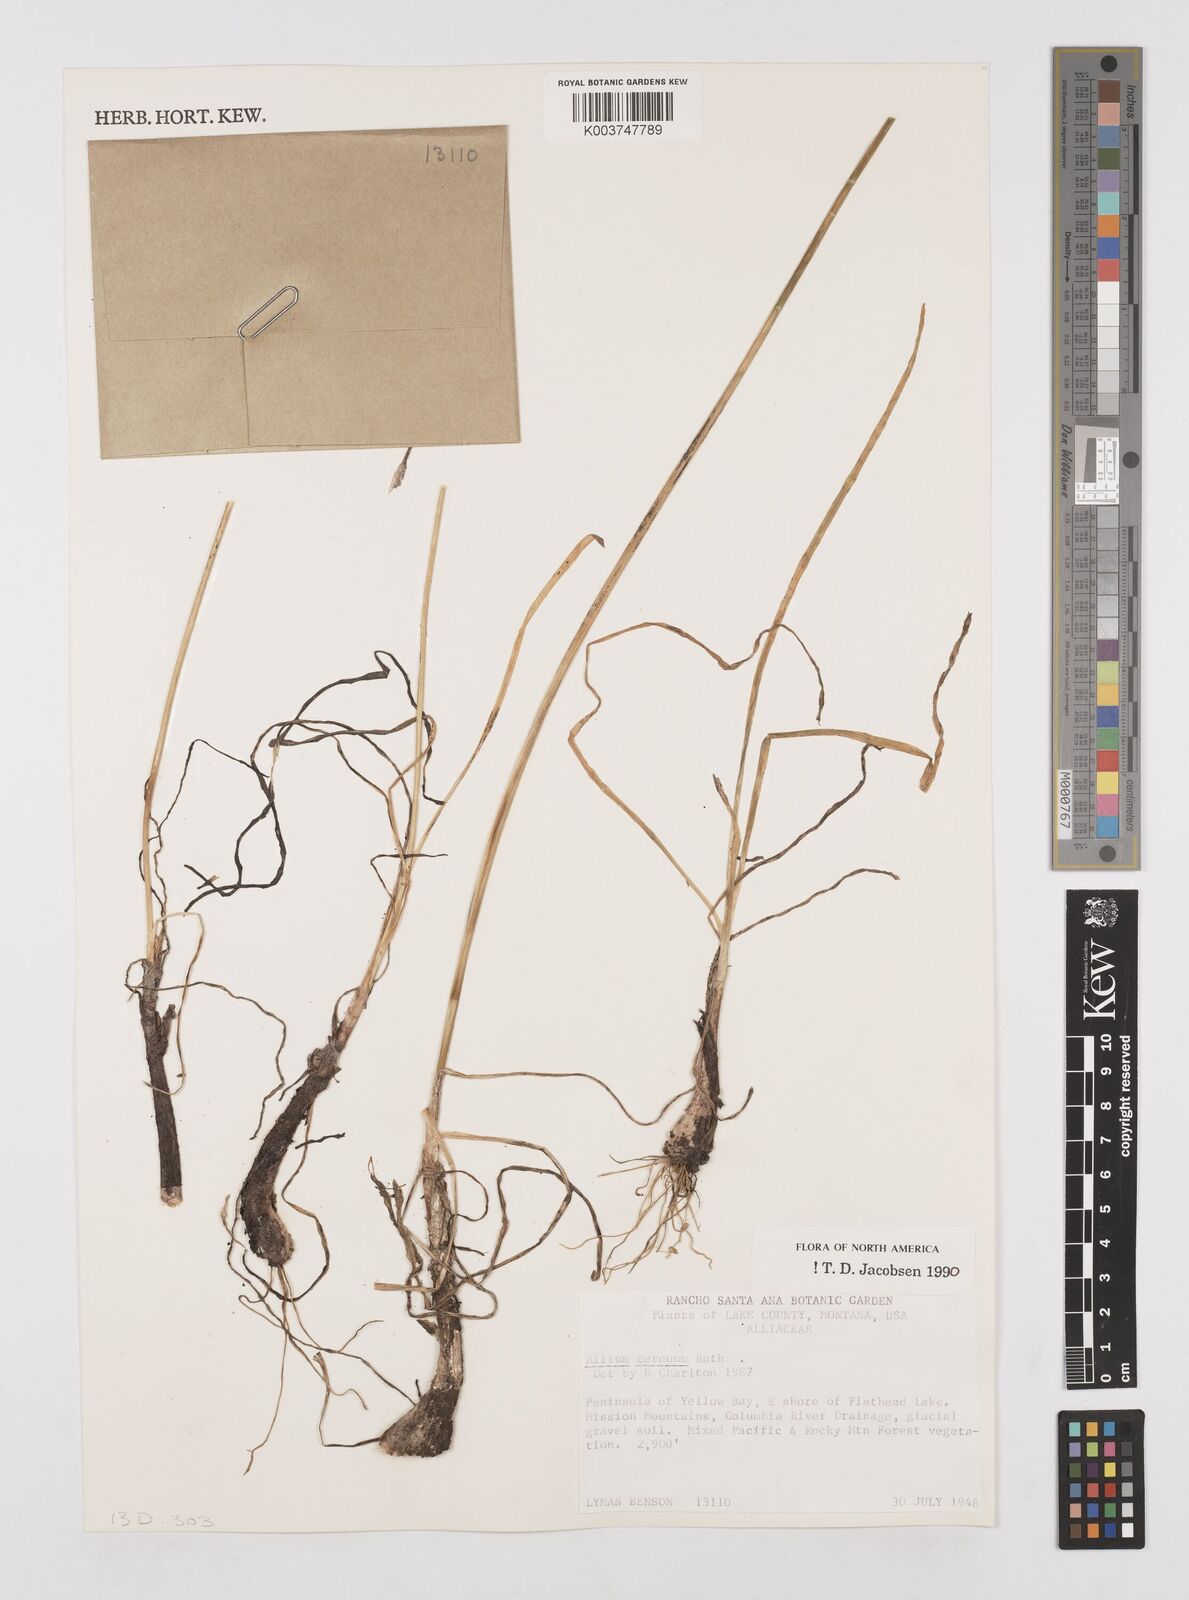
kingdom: Plantae
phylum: Tracheophyta
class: Liliopsida
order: Asparagales
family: Amaryllidaceae
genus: Allium
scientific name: Allium cernuum
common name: Nodding onion
